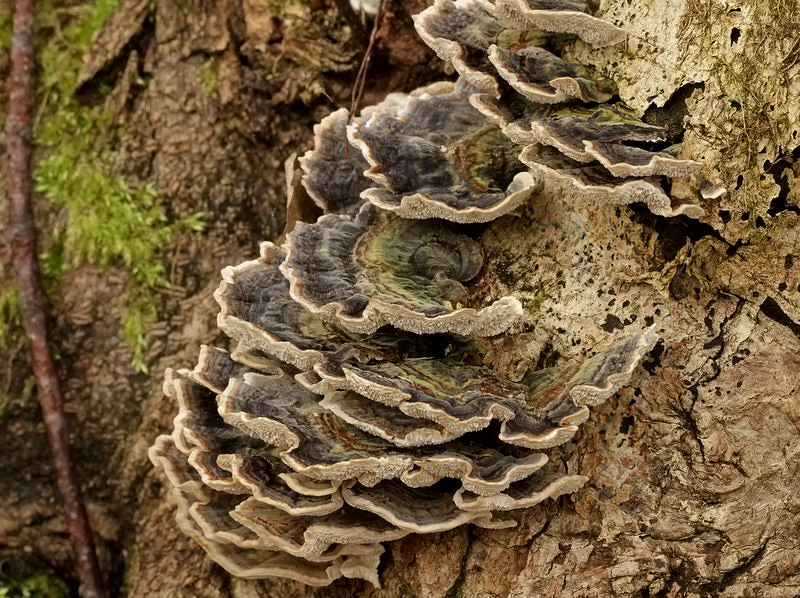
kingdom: Fungi
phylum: Basidiomycota
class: Agaricomycetes
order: Polyporales
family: Polyporaceae
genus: Trametes
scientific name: Trametes versicolor
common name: broget læderporesvamp
